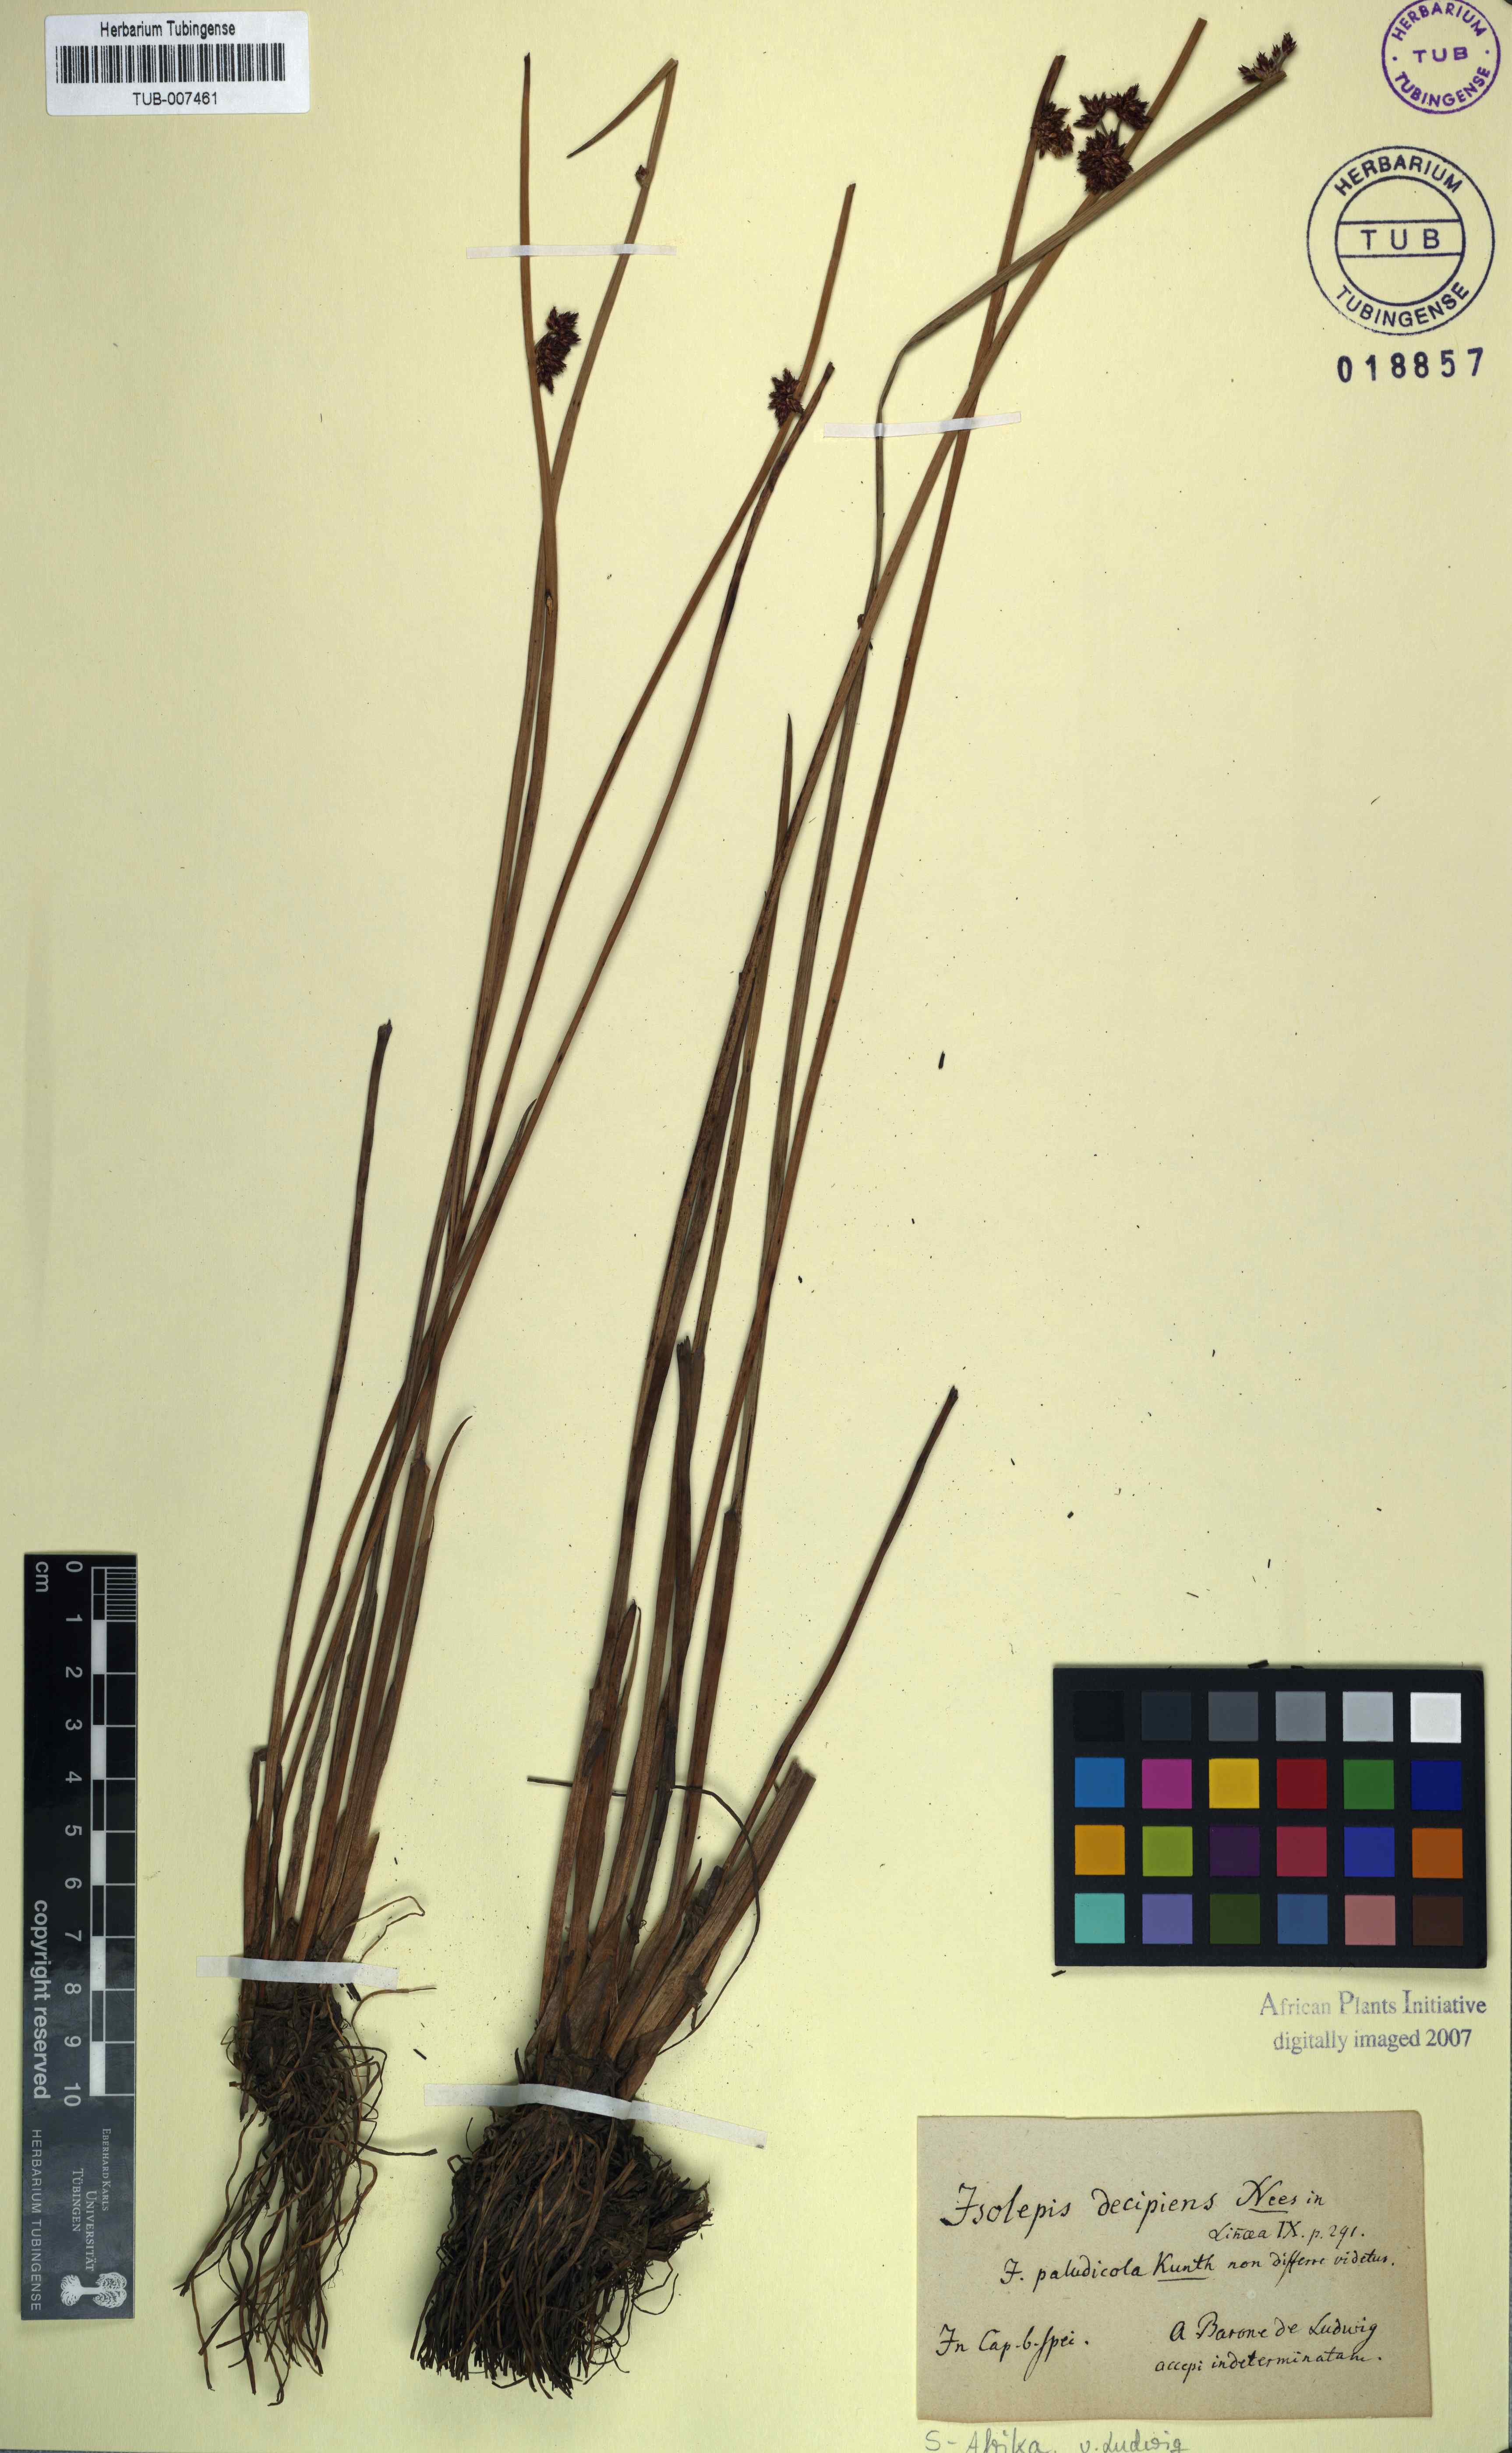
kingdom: Plantae
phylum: Tracheophyta
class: Liliopsida
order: Poales
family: Cyperaceae
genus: Schoenoplectiella
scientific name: Schoenoplectiella paludicola
